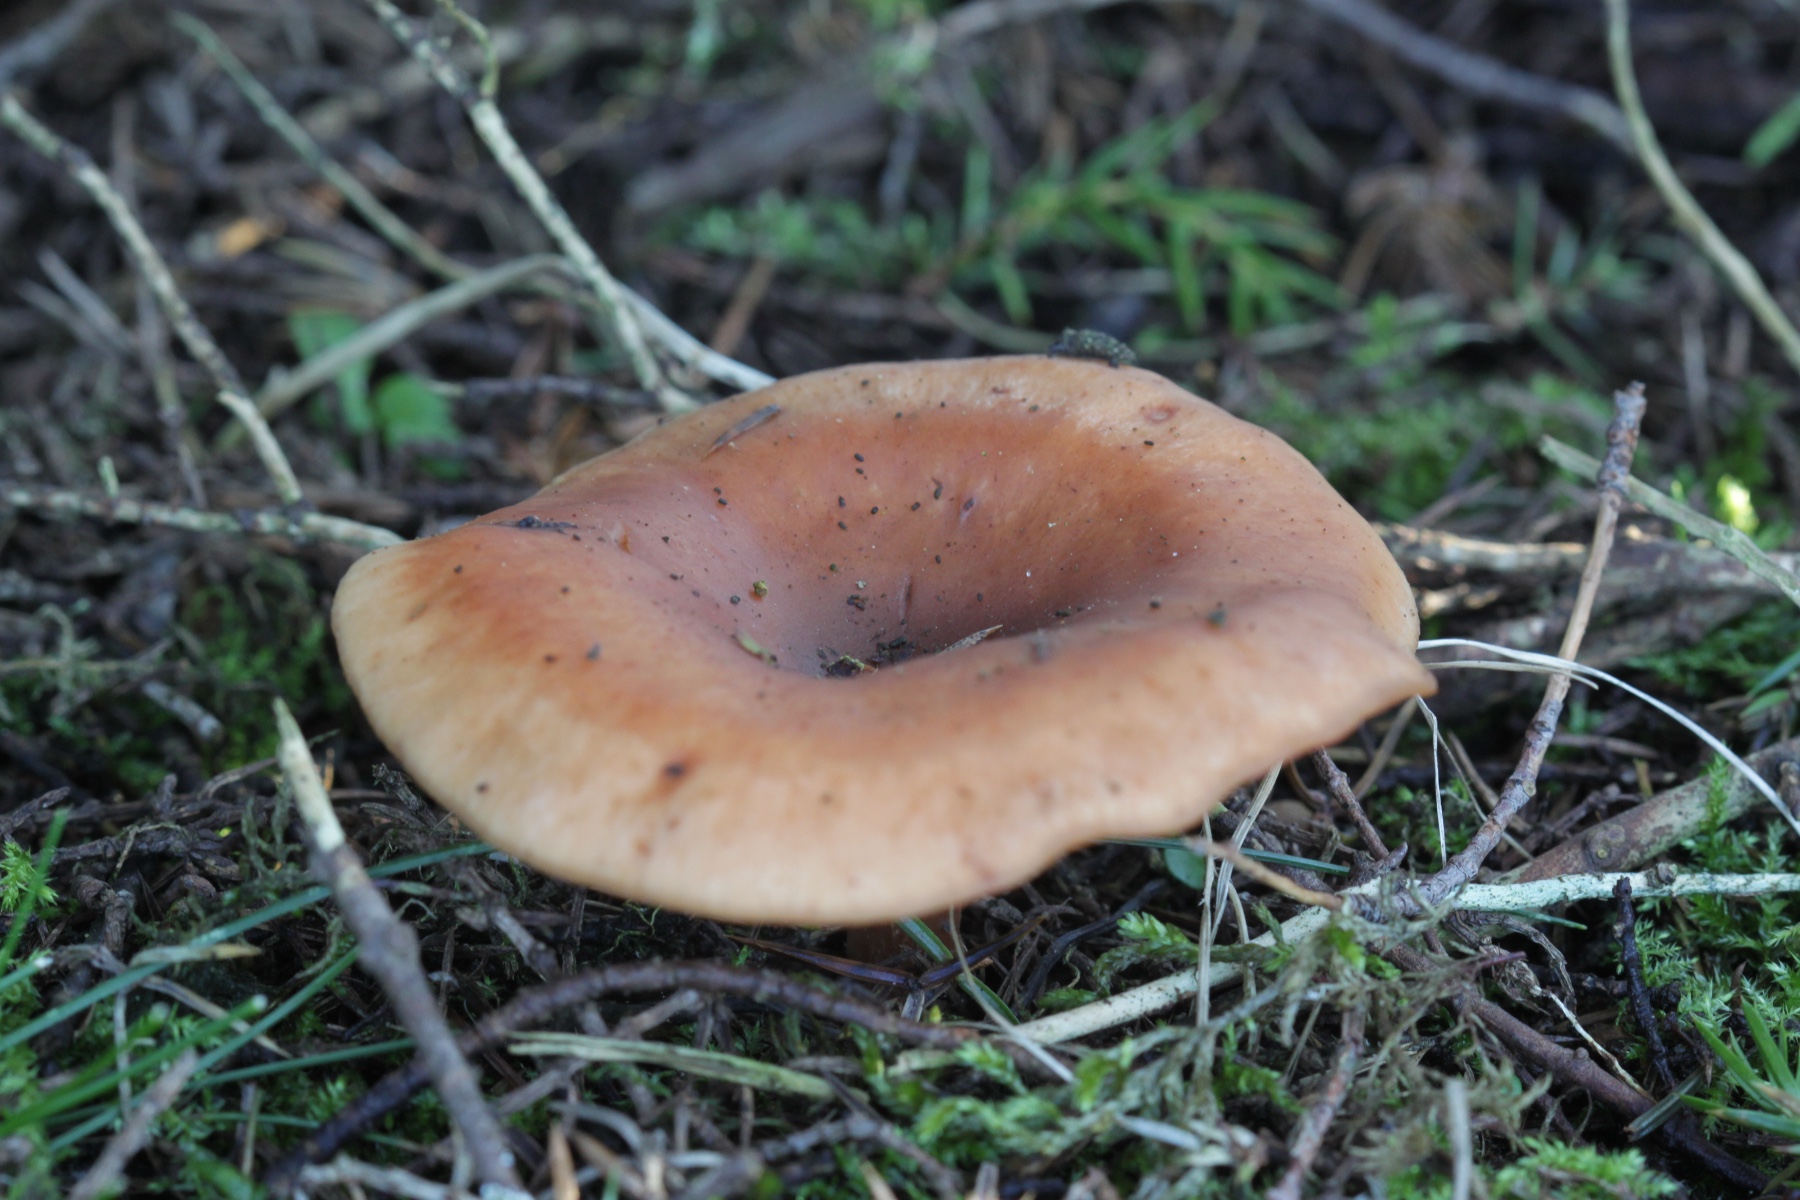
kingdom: Fungi
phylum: Basidiomycota
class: Agaricomycetes
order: Agaricales
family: Tricholomataceae
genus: Paralepista
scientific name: Paralepista flaccida
